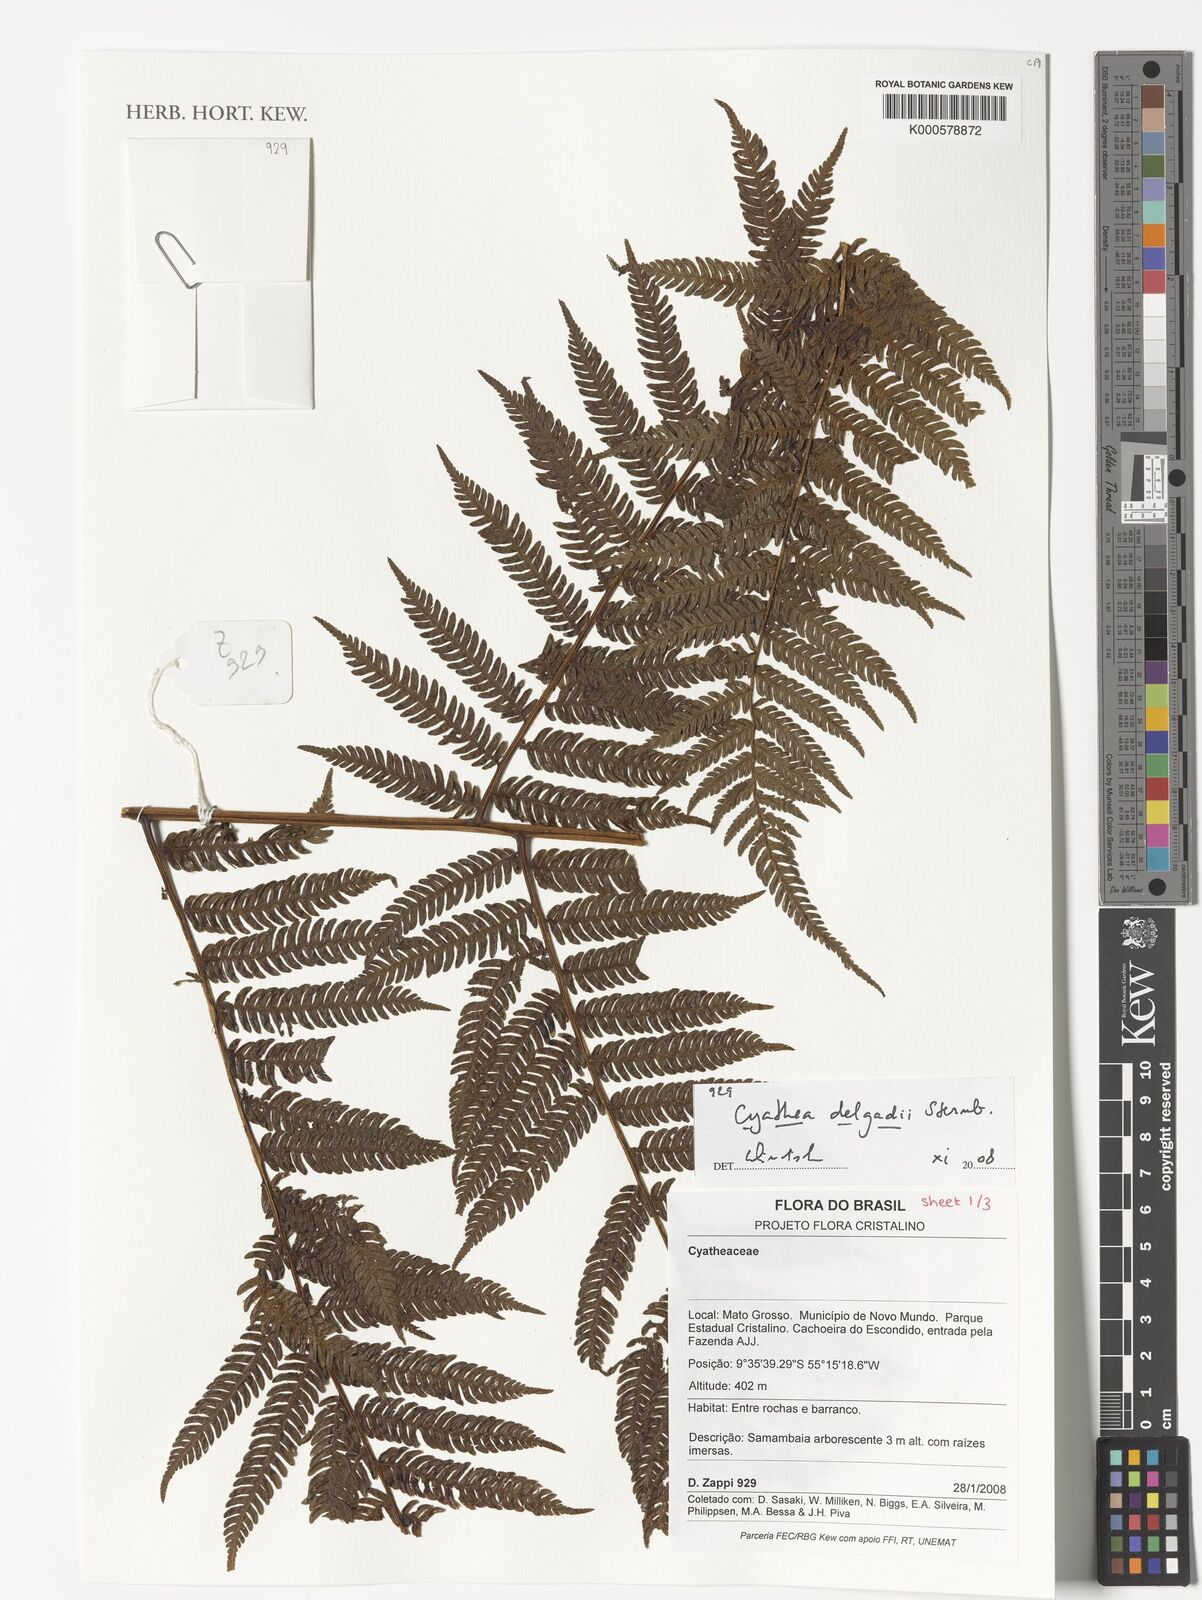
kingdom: Plantae
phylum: Tracheophyta
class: Polypodiopsida
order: Cyatheales
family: Cyatheaceae
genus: Cyathea
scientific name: Cyathea delgadii
